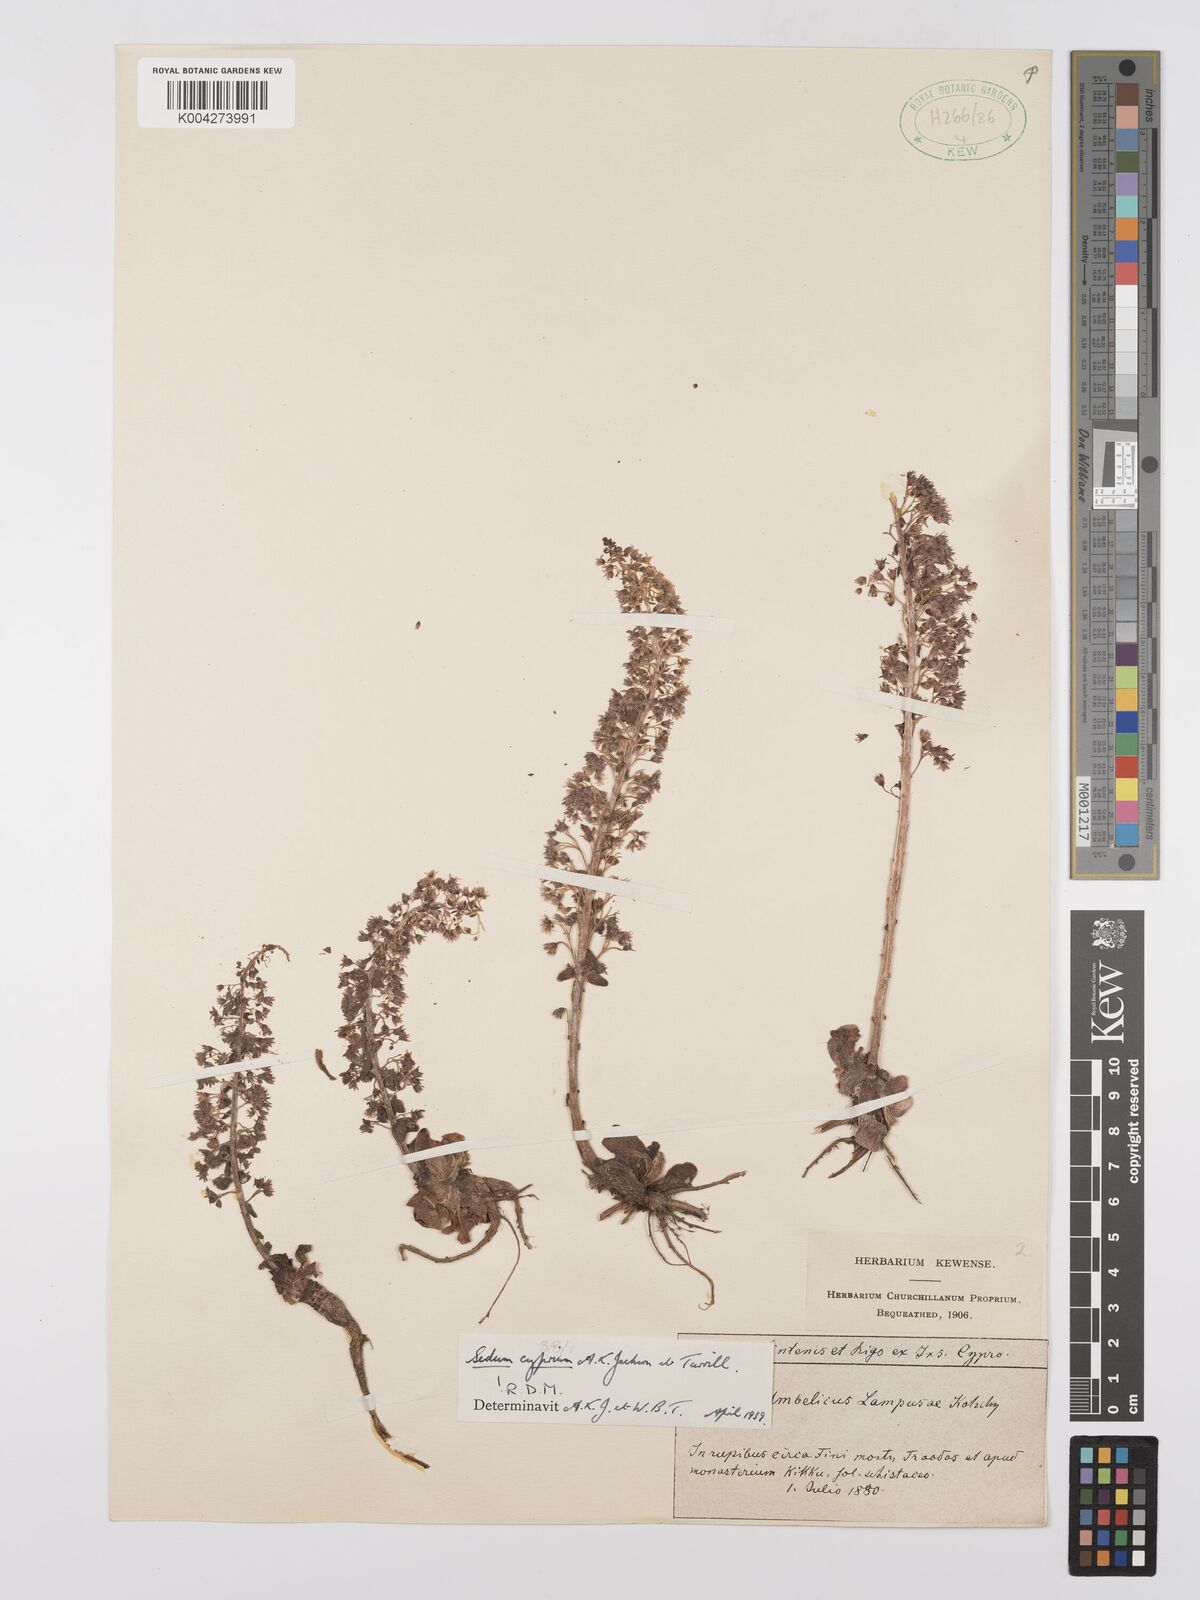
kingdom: Plantae
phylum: Tracheophyta
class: Magnoliopsida
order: Saxifragales
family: Crassulaceae
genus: Sedum
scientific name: Sedum cyprium
